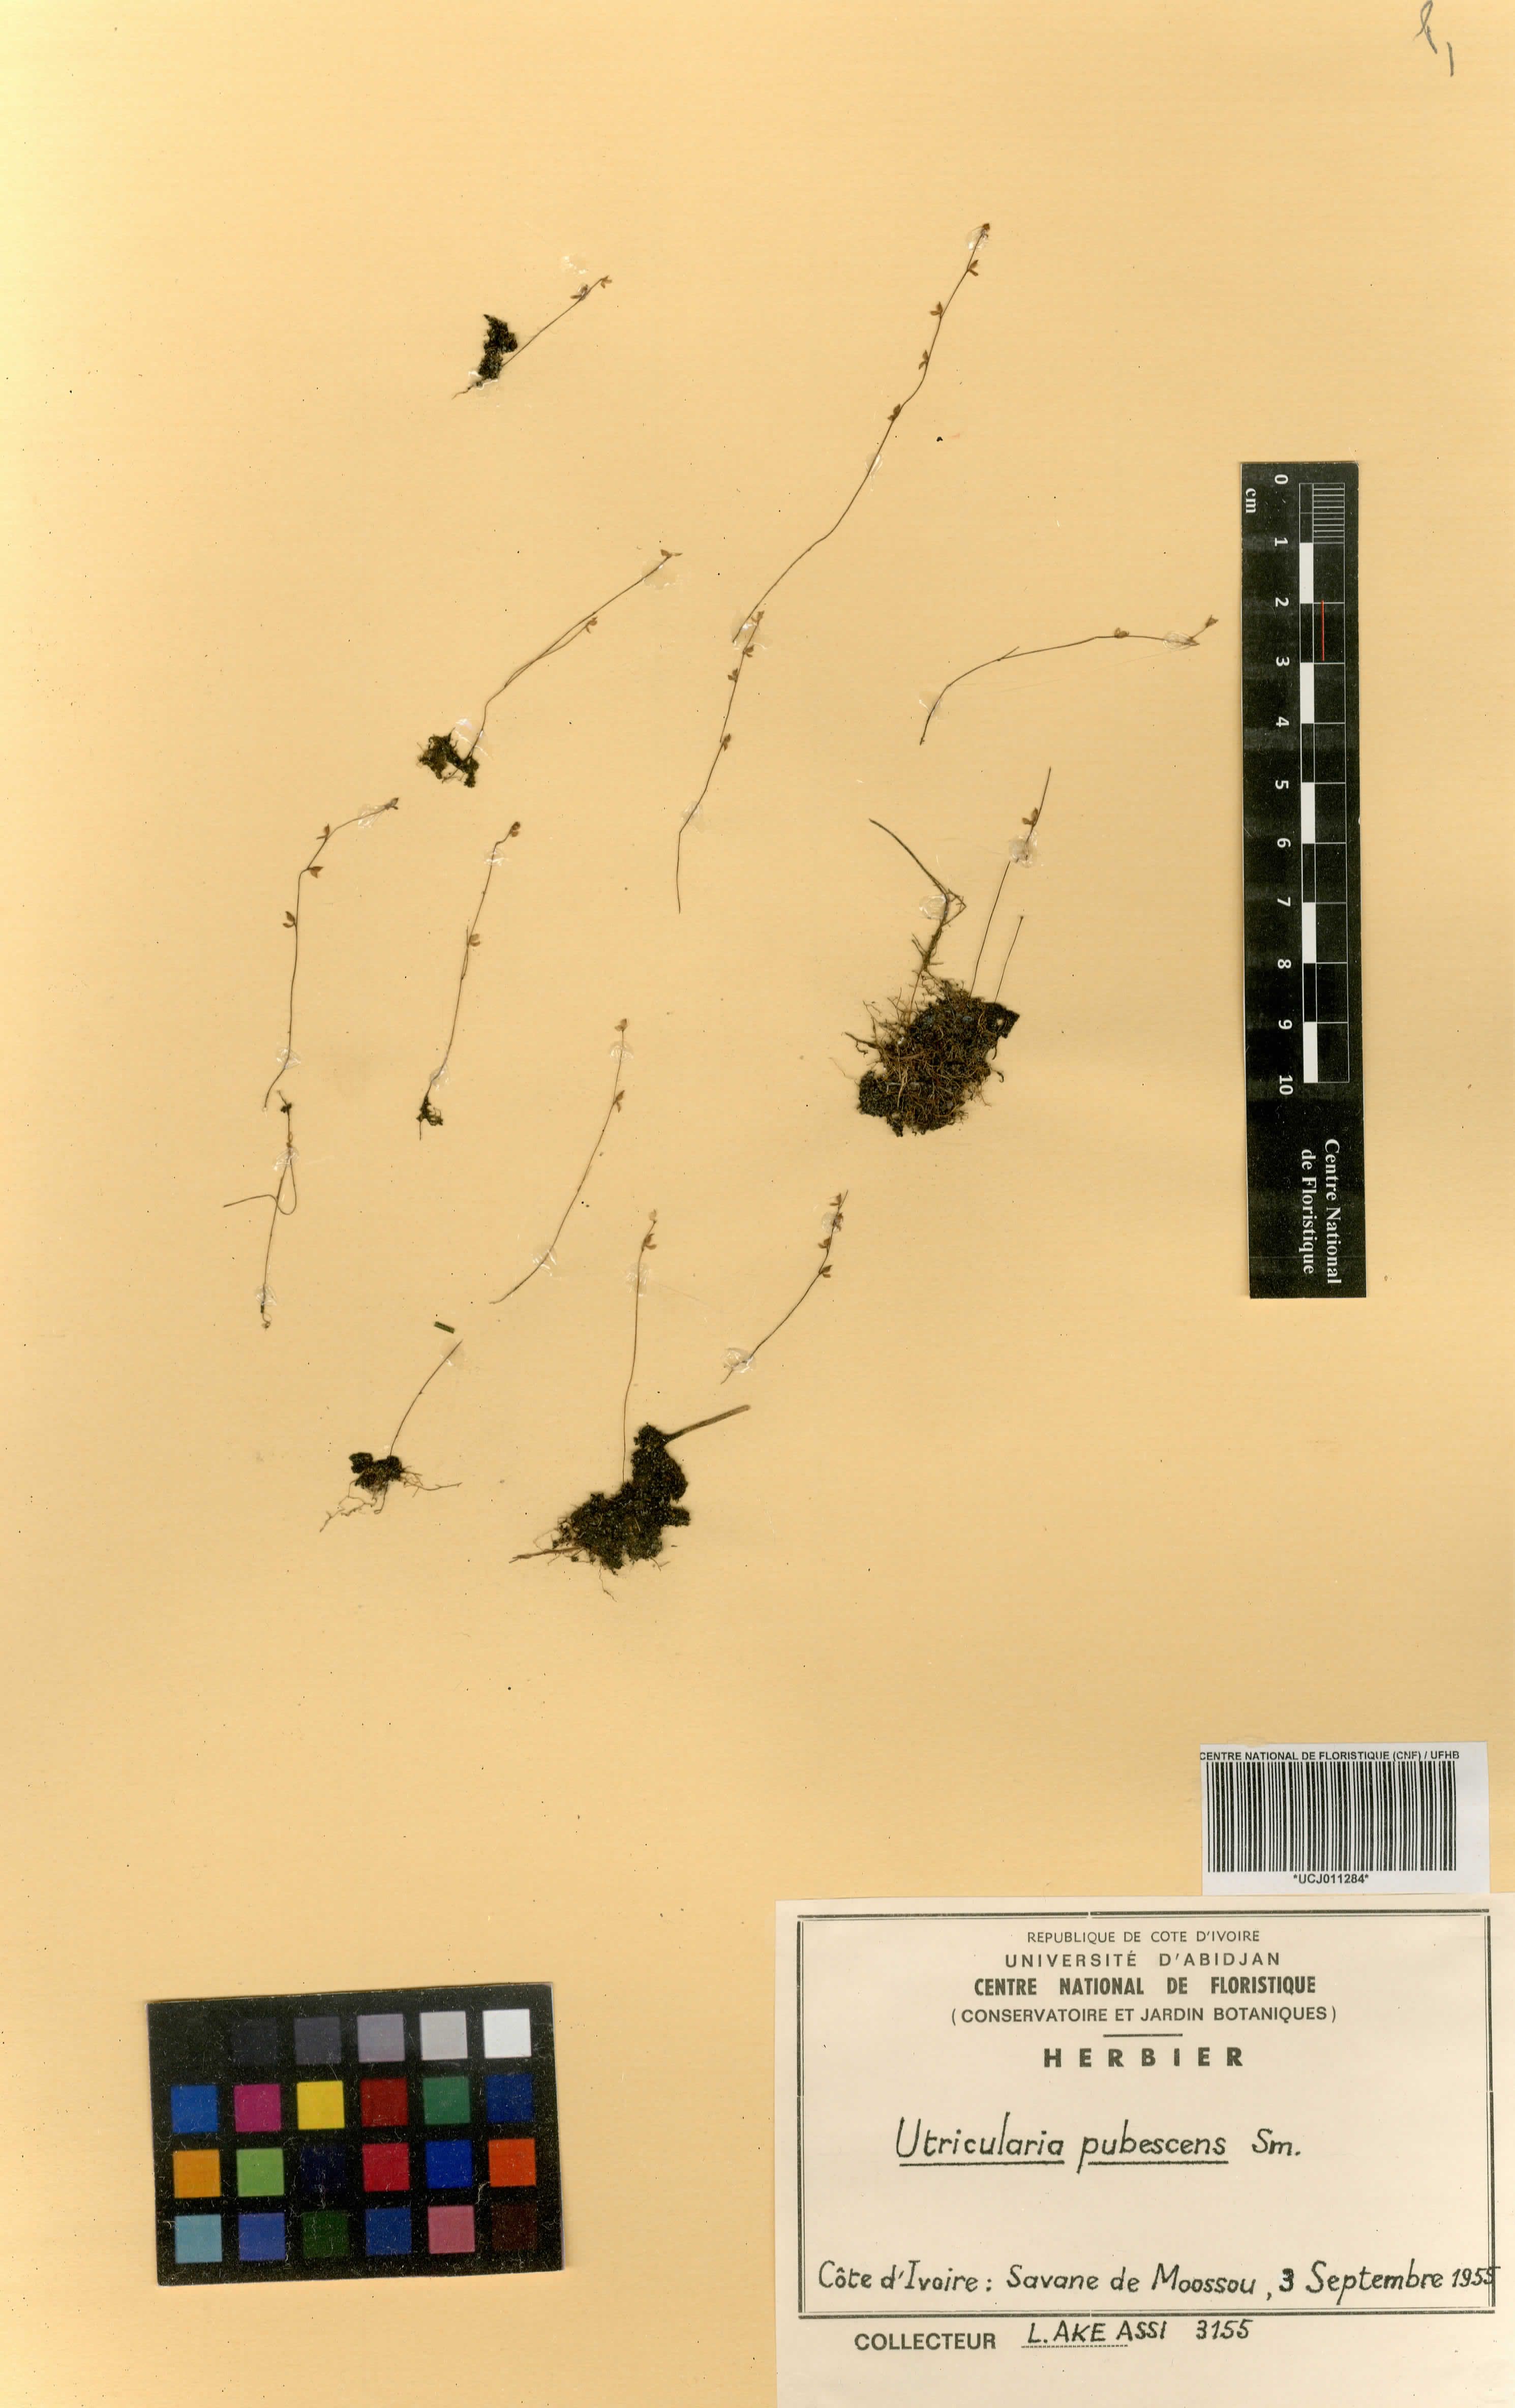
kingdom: Plantae
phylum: Tracheophyta
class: Magnoliopsida
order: Lamiales
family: Lentibulariaceae
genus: Utricularia
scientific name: Utricularia pubescens
